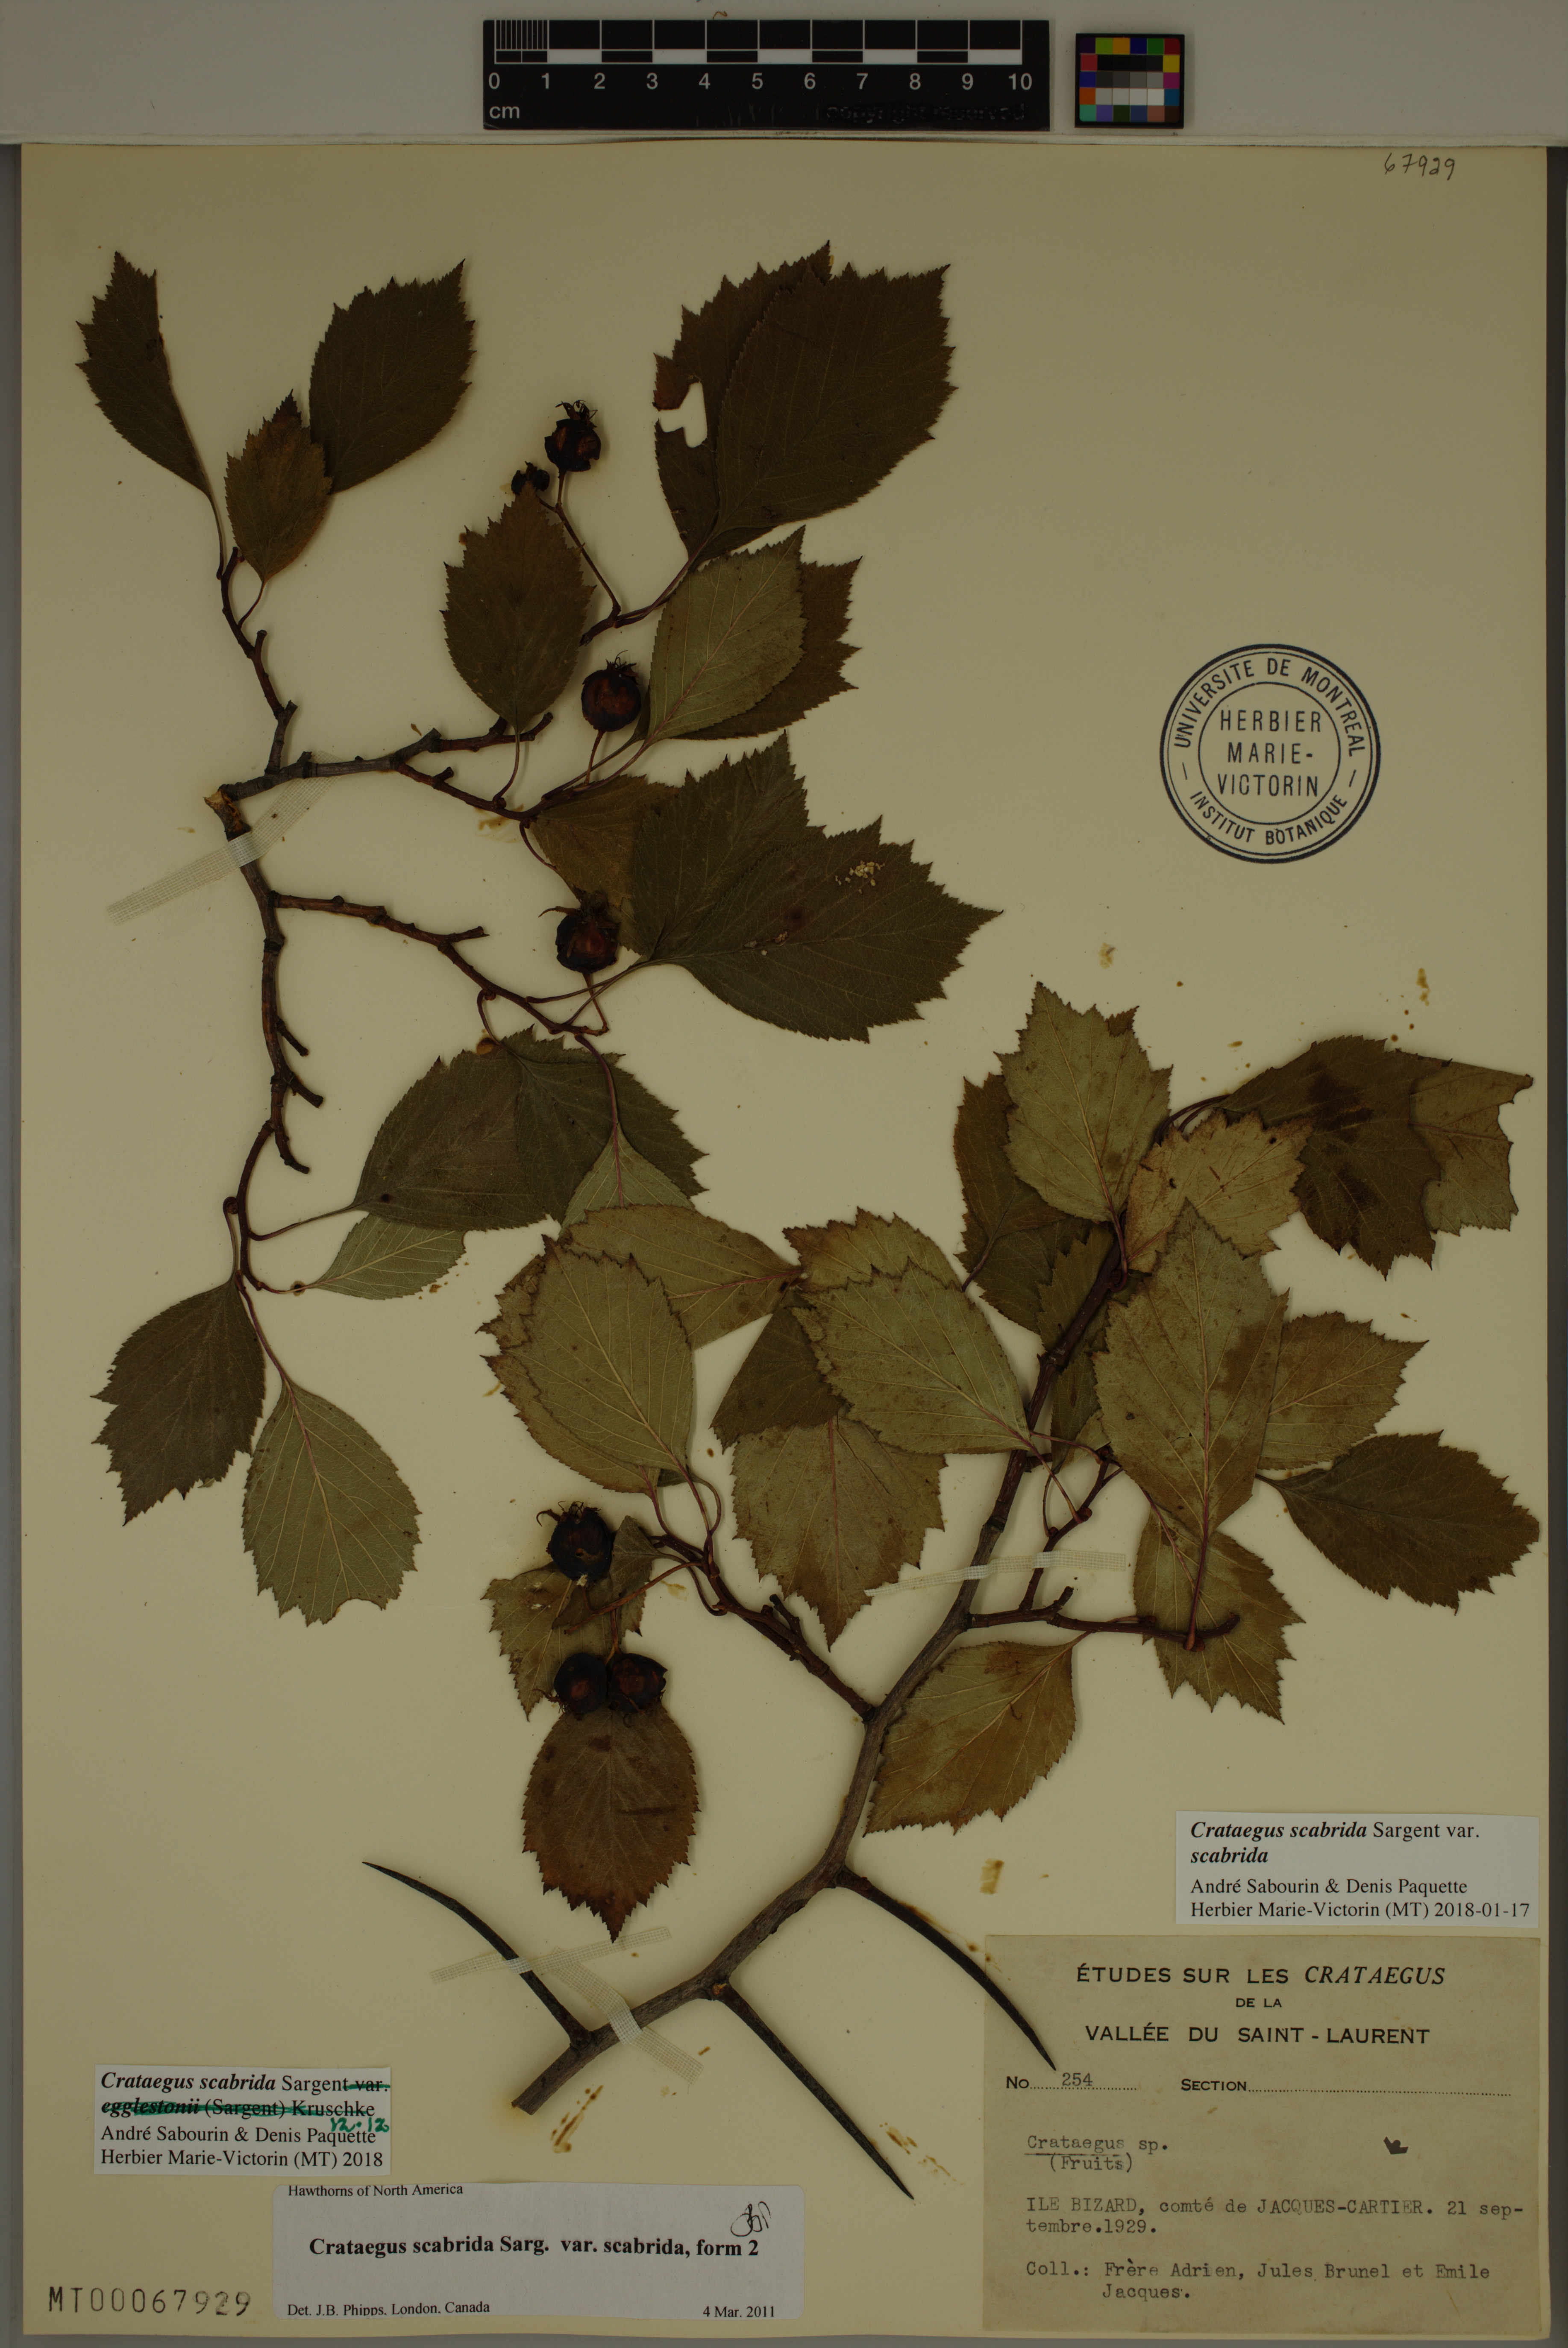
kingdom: Plantae
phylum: Tracheophyta
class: Magnoliopsida
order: Rosales
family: Rosaceae
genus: Crataegus
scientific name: Crataegus scabrida
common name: Rough hawthorn
